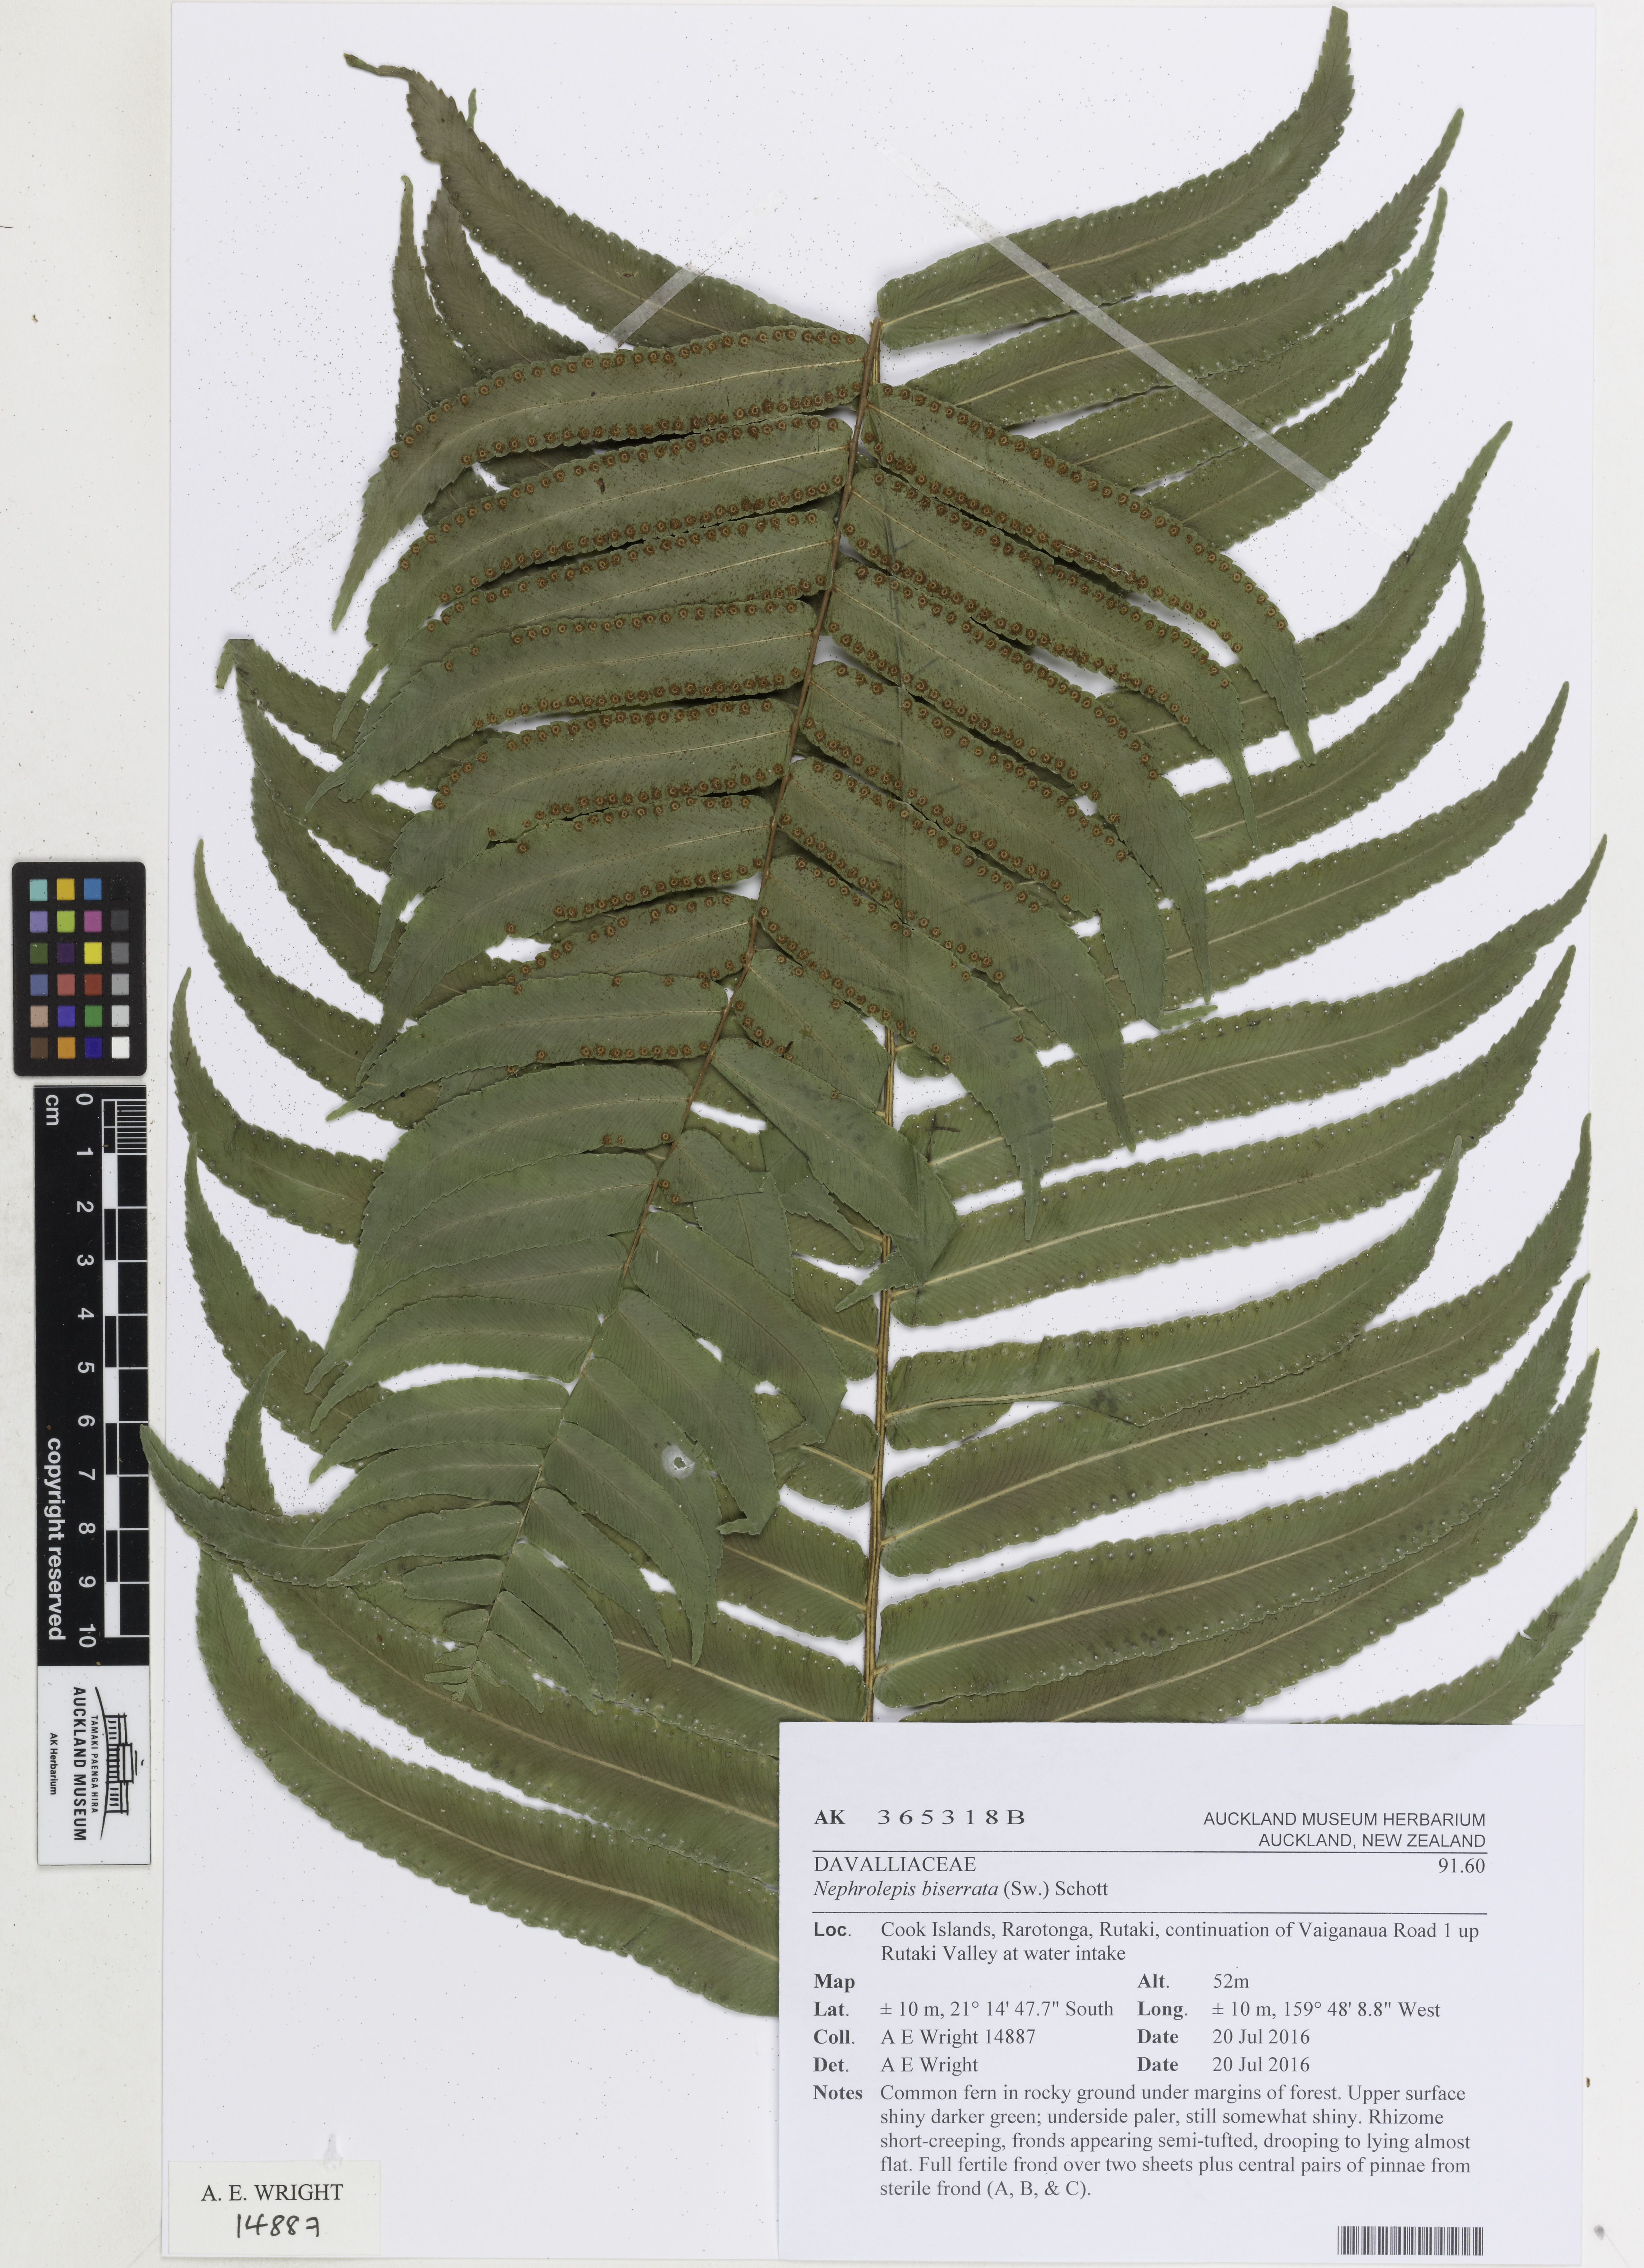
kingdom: Plantae
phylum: Tracheophyta
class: Polypodiopsida
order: Polypodiales
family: Nephrolepidaceae
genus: Nephrolepis
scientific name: Nephrolepis biserrata
